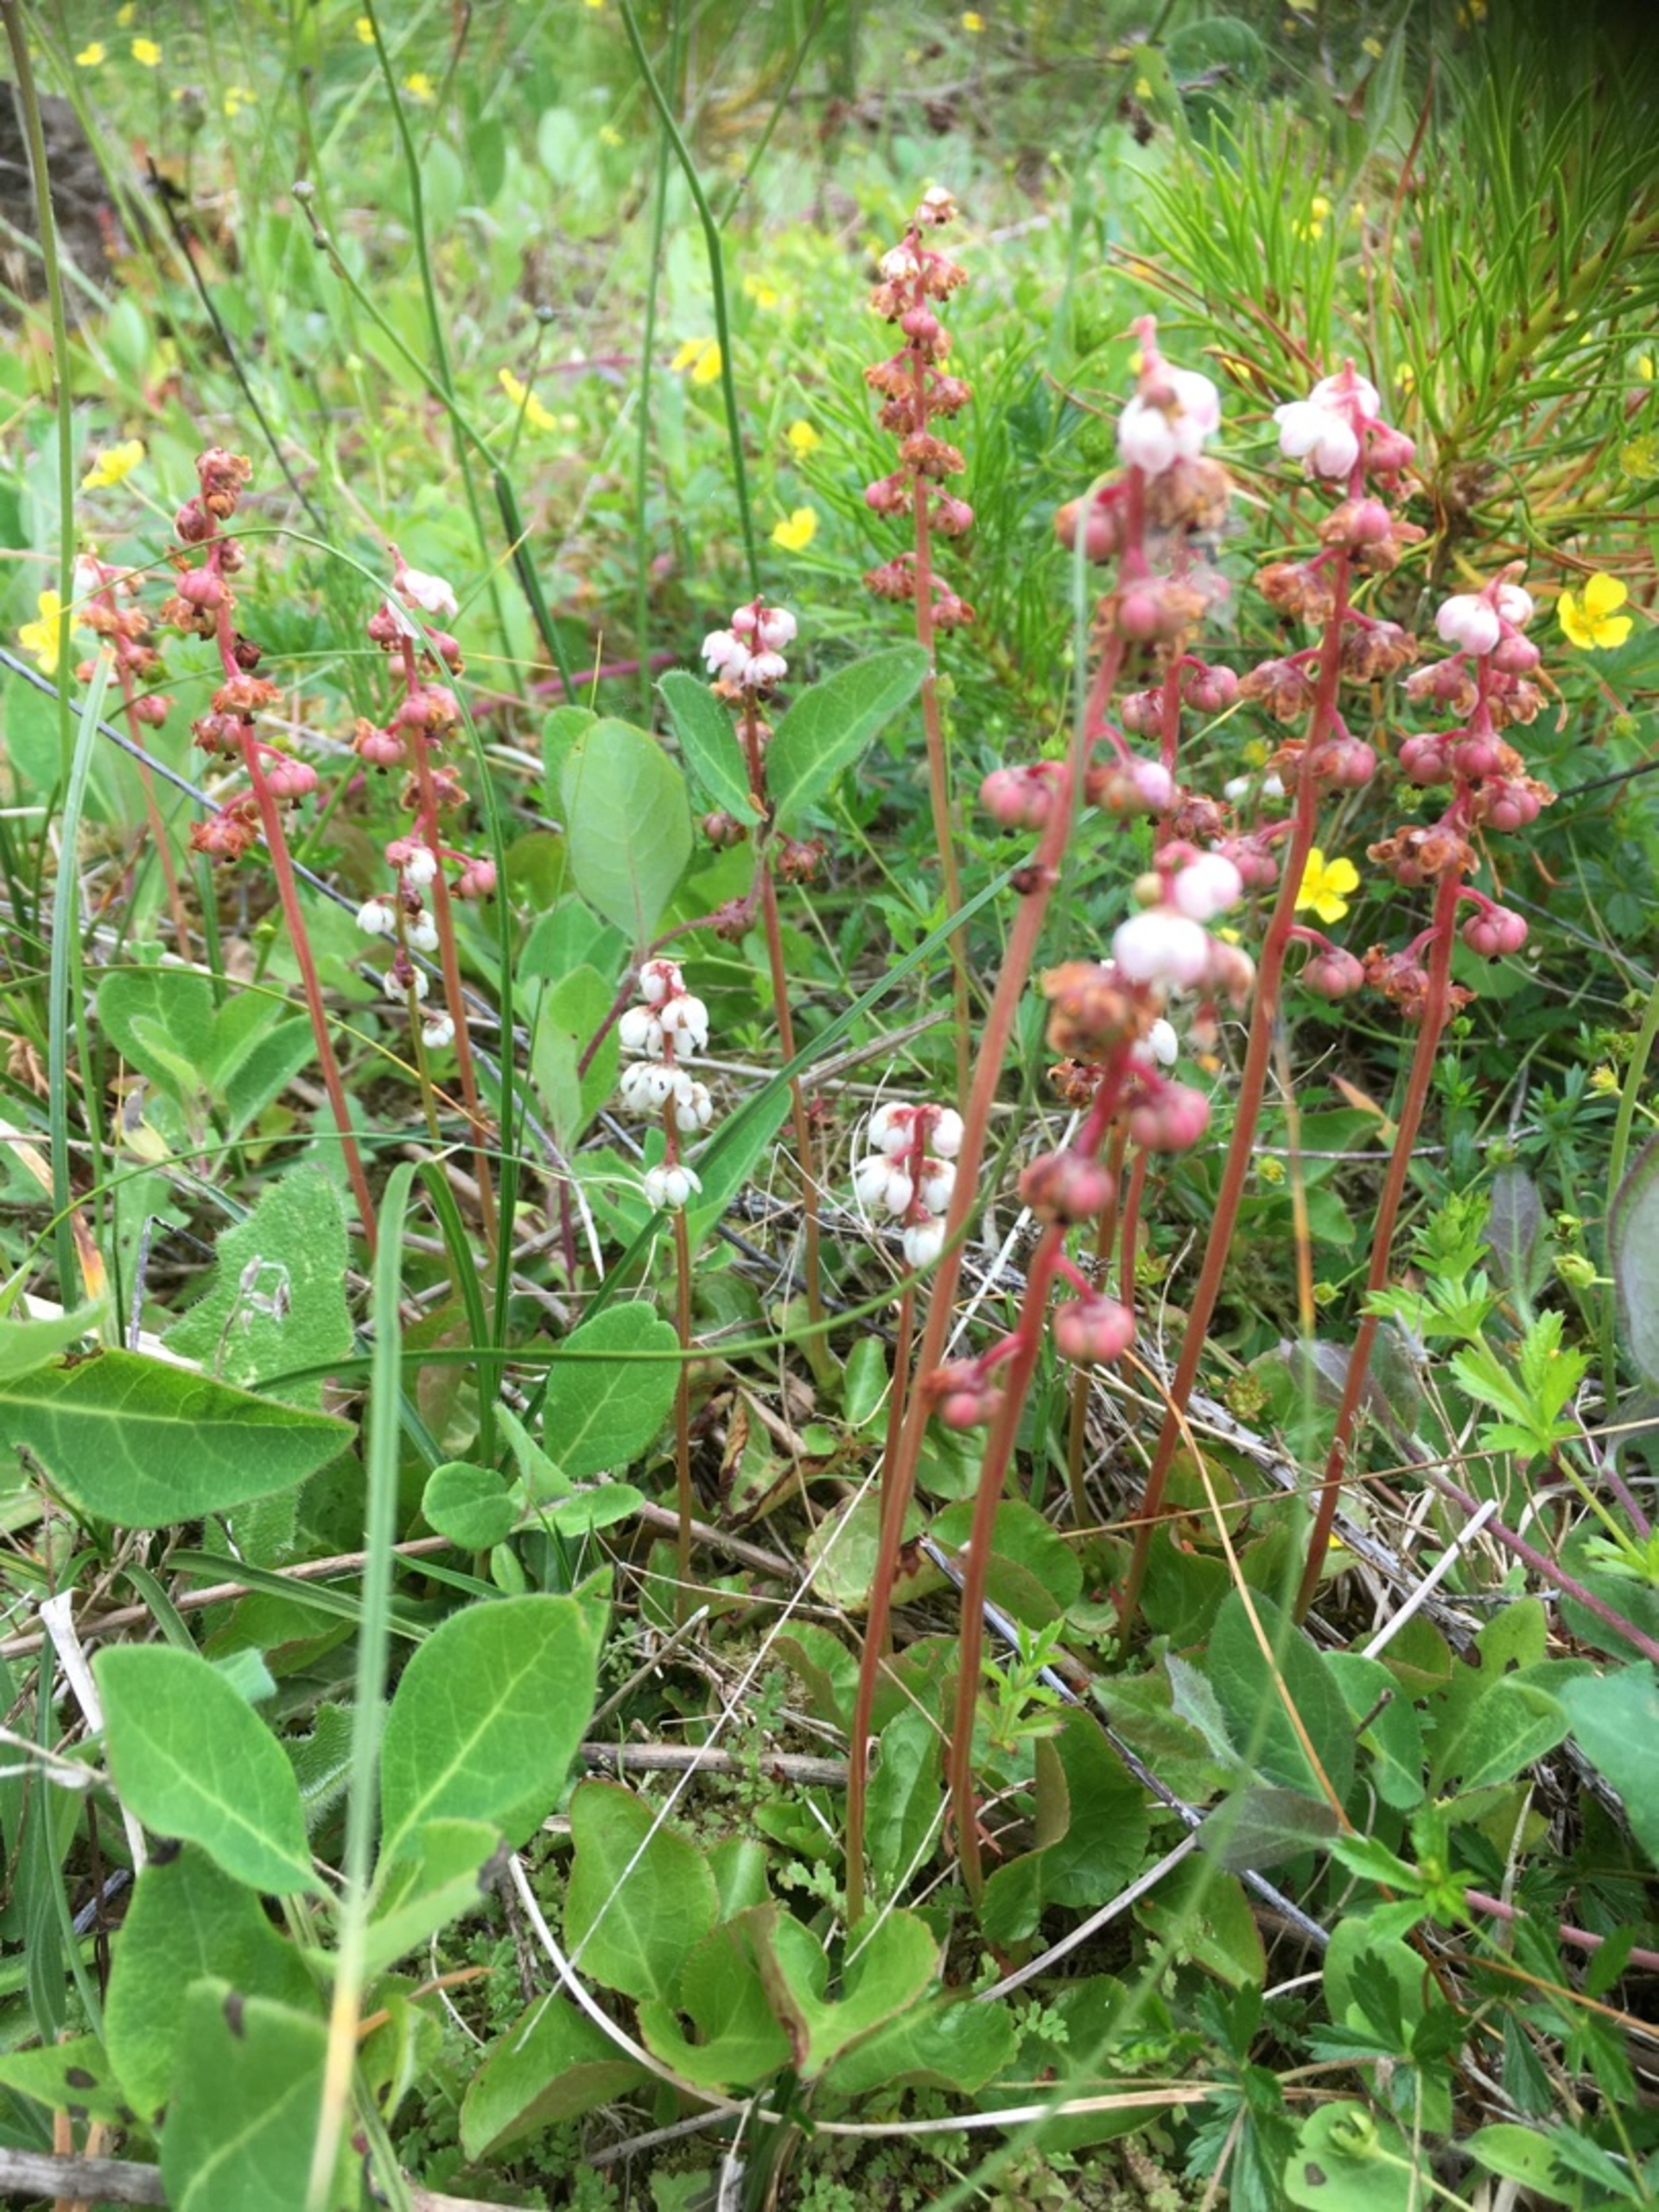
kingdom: Plantae
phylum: Tracheophyta
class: Magnoliopsida
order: Ericales
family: Ericaceae
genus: Pyrola
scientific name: Pyrola minor
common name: Liden vintergrøn
